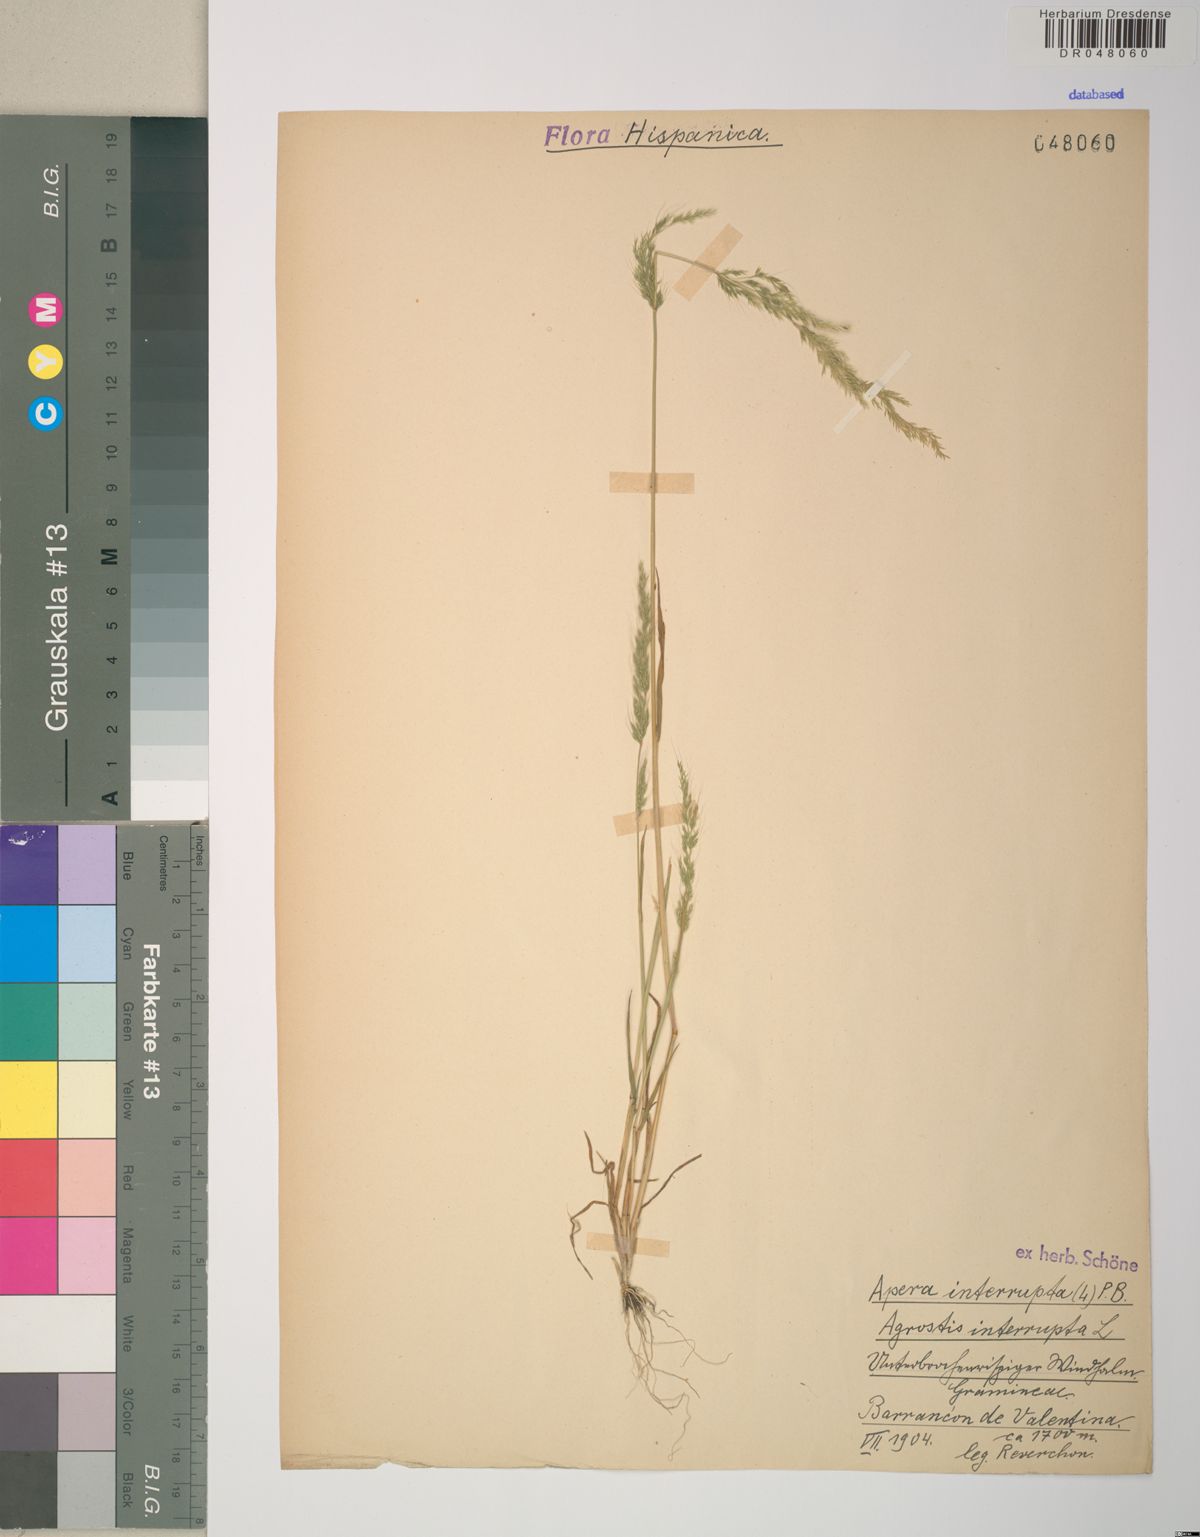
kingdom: Plantae
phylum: Tracheophyta
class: Liliopsida
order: Poales
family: Poaceae
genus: Apera
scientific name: Apera interrupta
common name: Dense silky-bent
